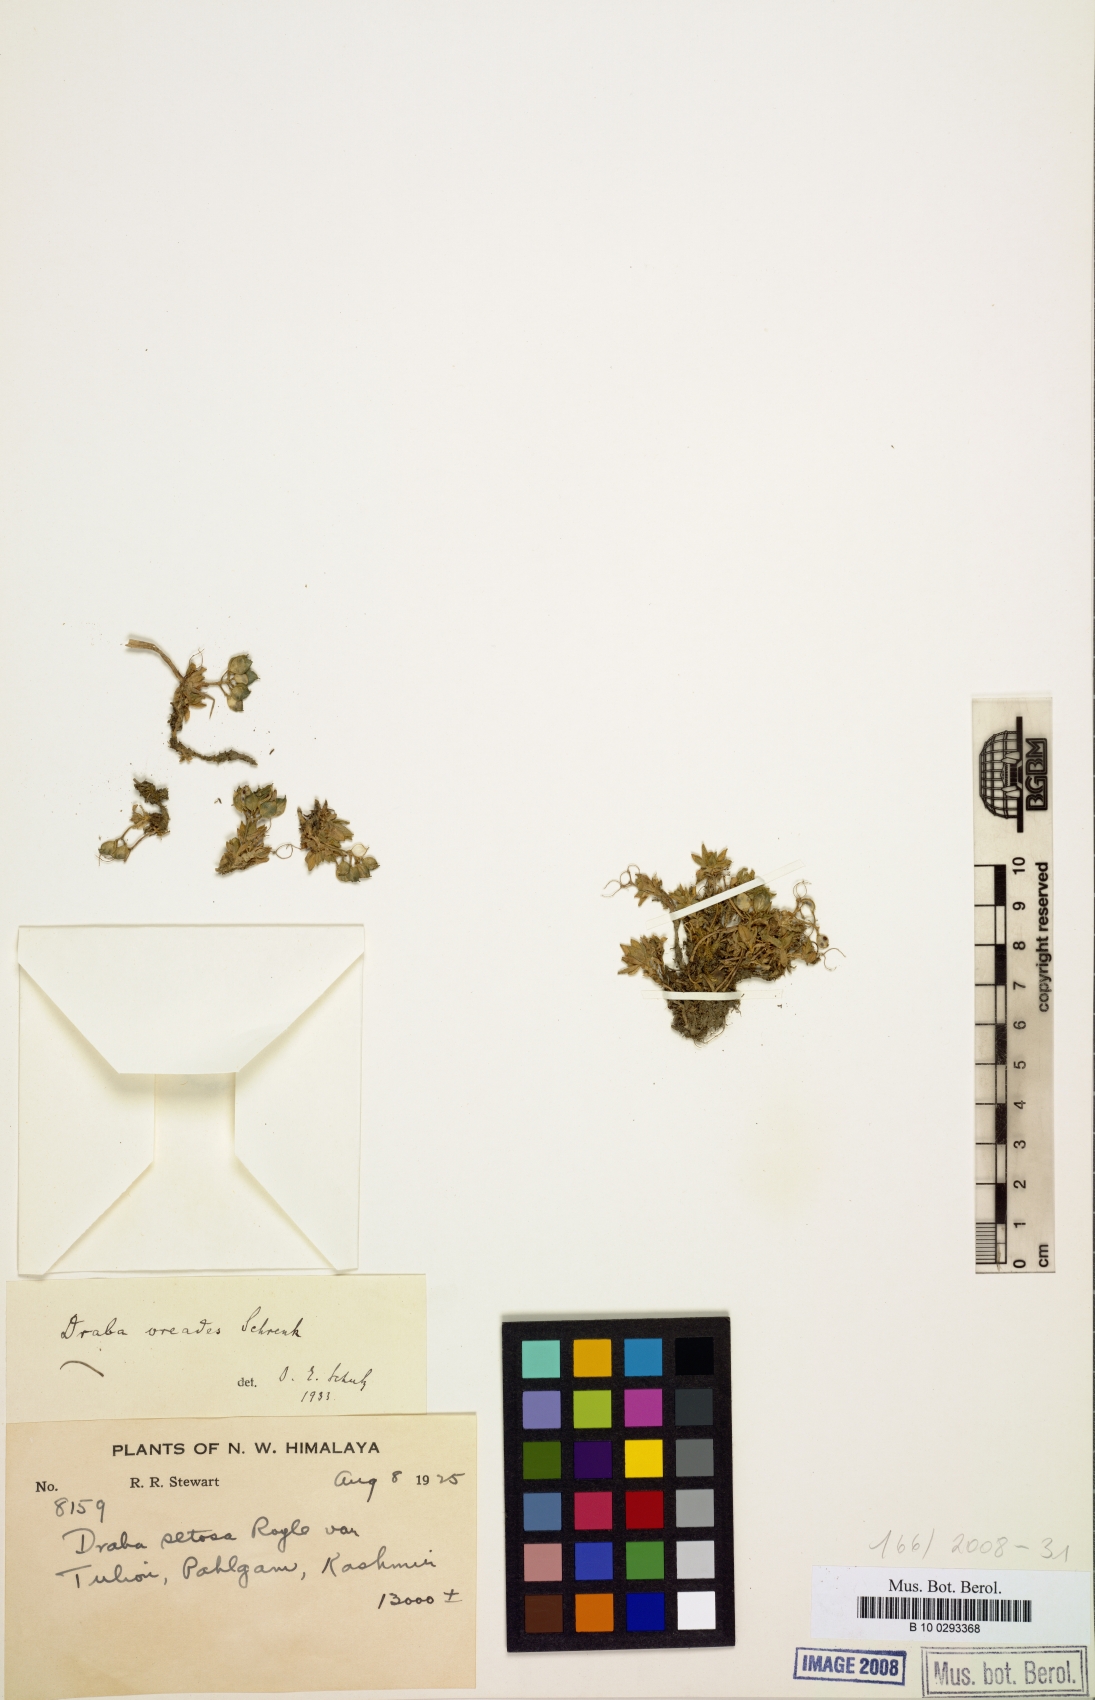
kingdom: Plantae
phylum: Tracheophyta
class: Magnoliopsida
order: Brassicales
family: Brassicaceae
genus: Draba
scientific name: Draba oreades
